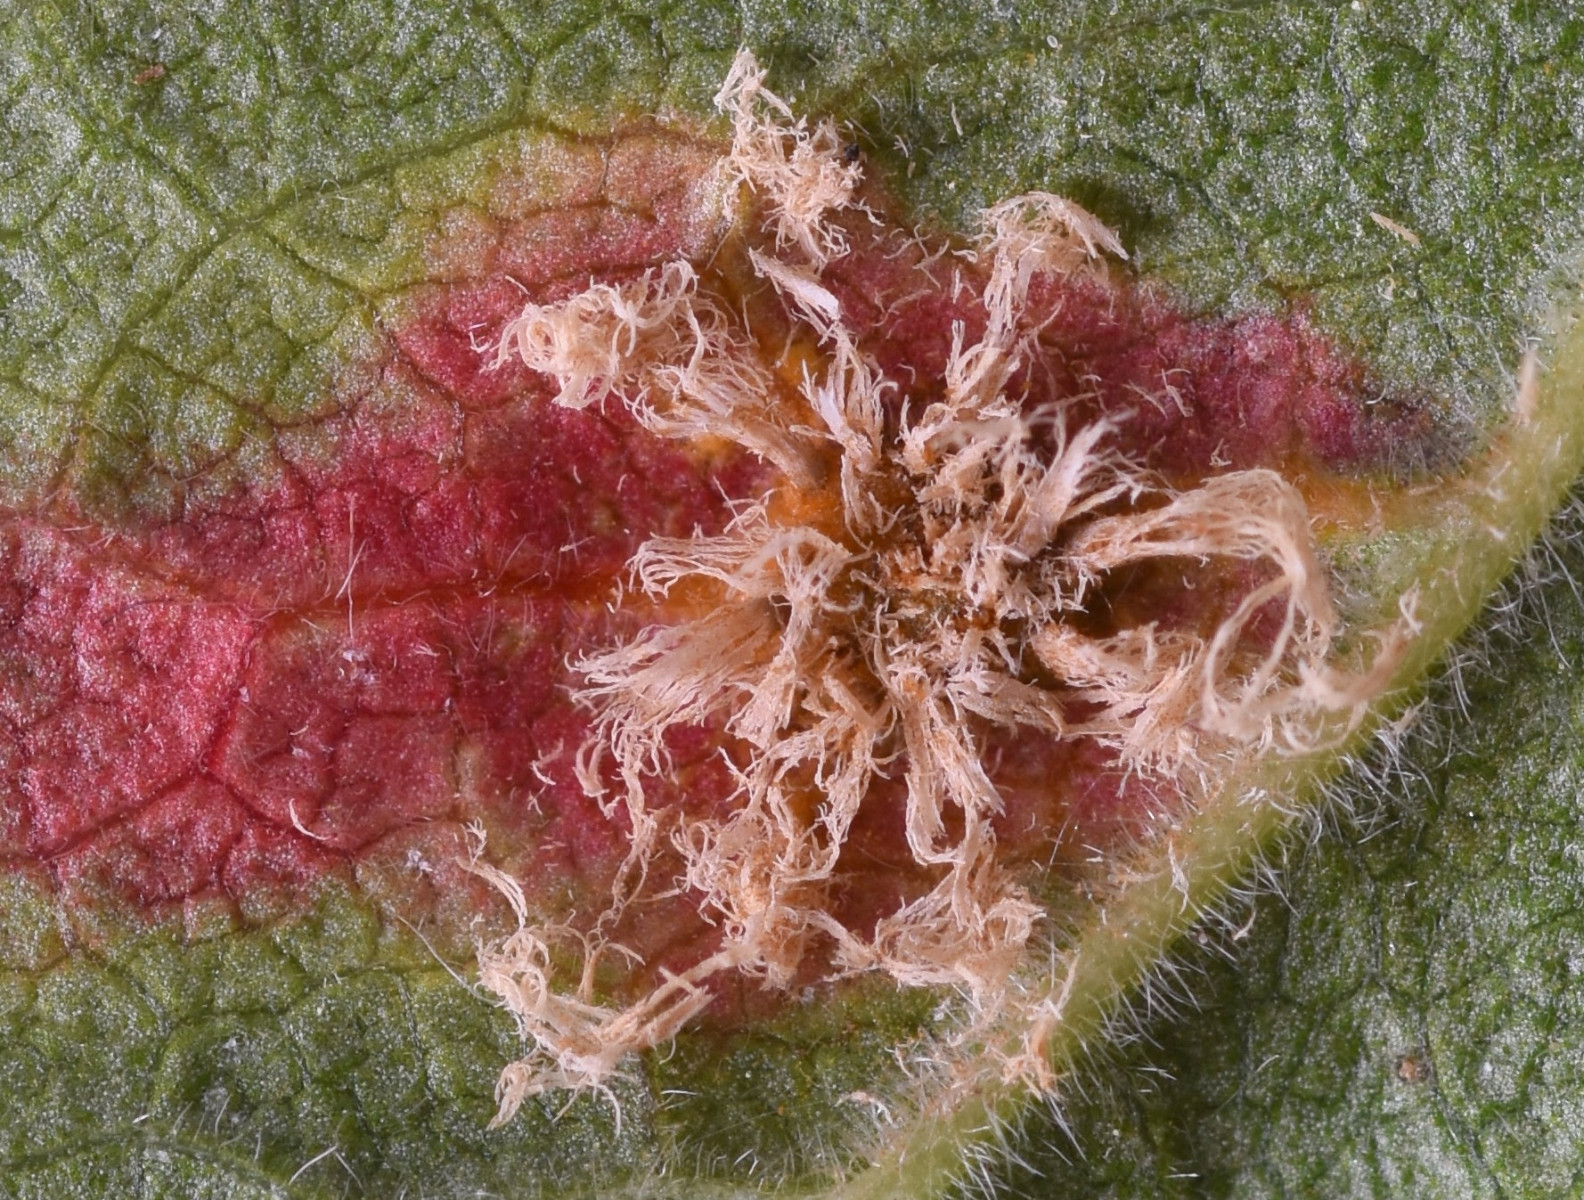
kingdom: Fungi
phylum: Basidiomycota
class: Pucciniomycetes
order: Pucciniales
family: Gymnosporangiaceae
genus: Gymnosporangium
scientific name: Gymnosporangium
